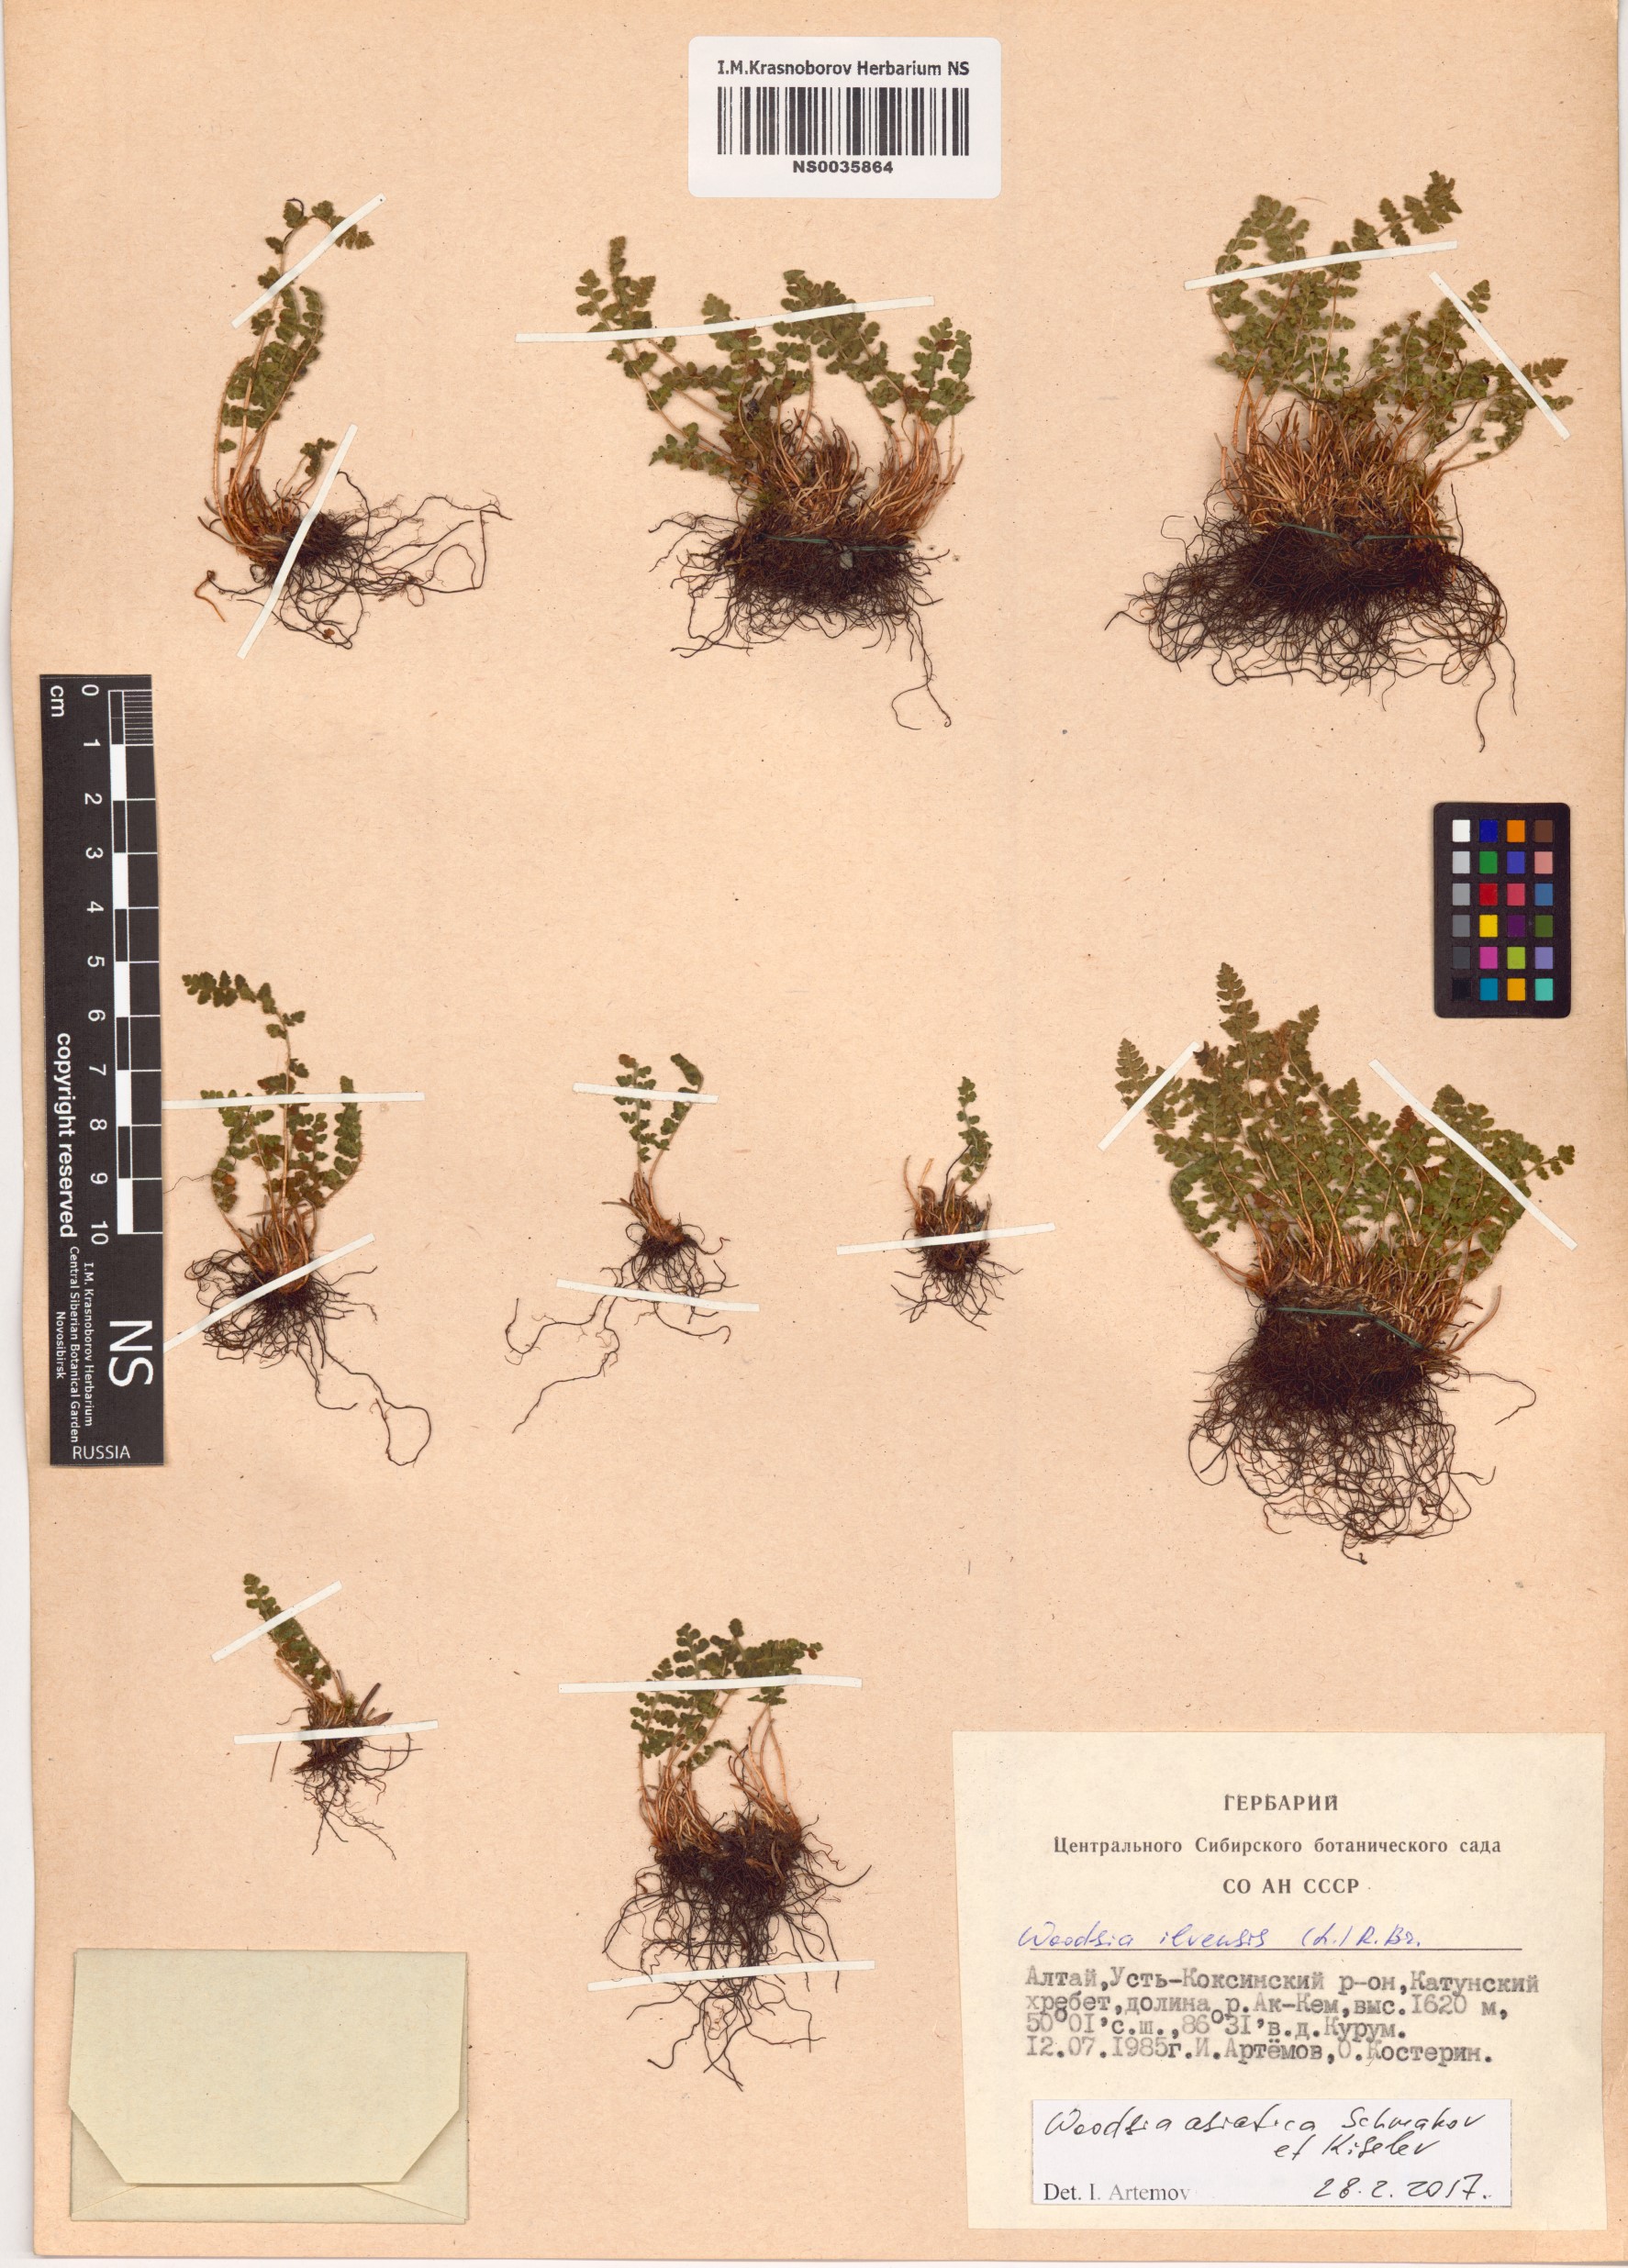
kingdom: Plantae
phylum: Tracheophyta
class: Polypodiopsida
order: Polypodiales
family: Woodsiaceae
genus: Woodsia
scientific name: Woodsia asiatica
